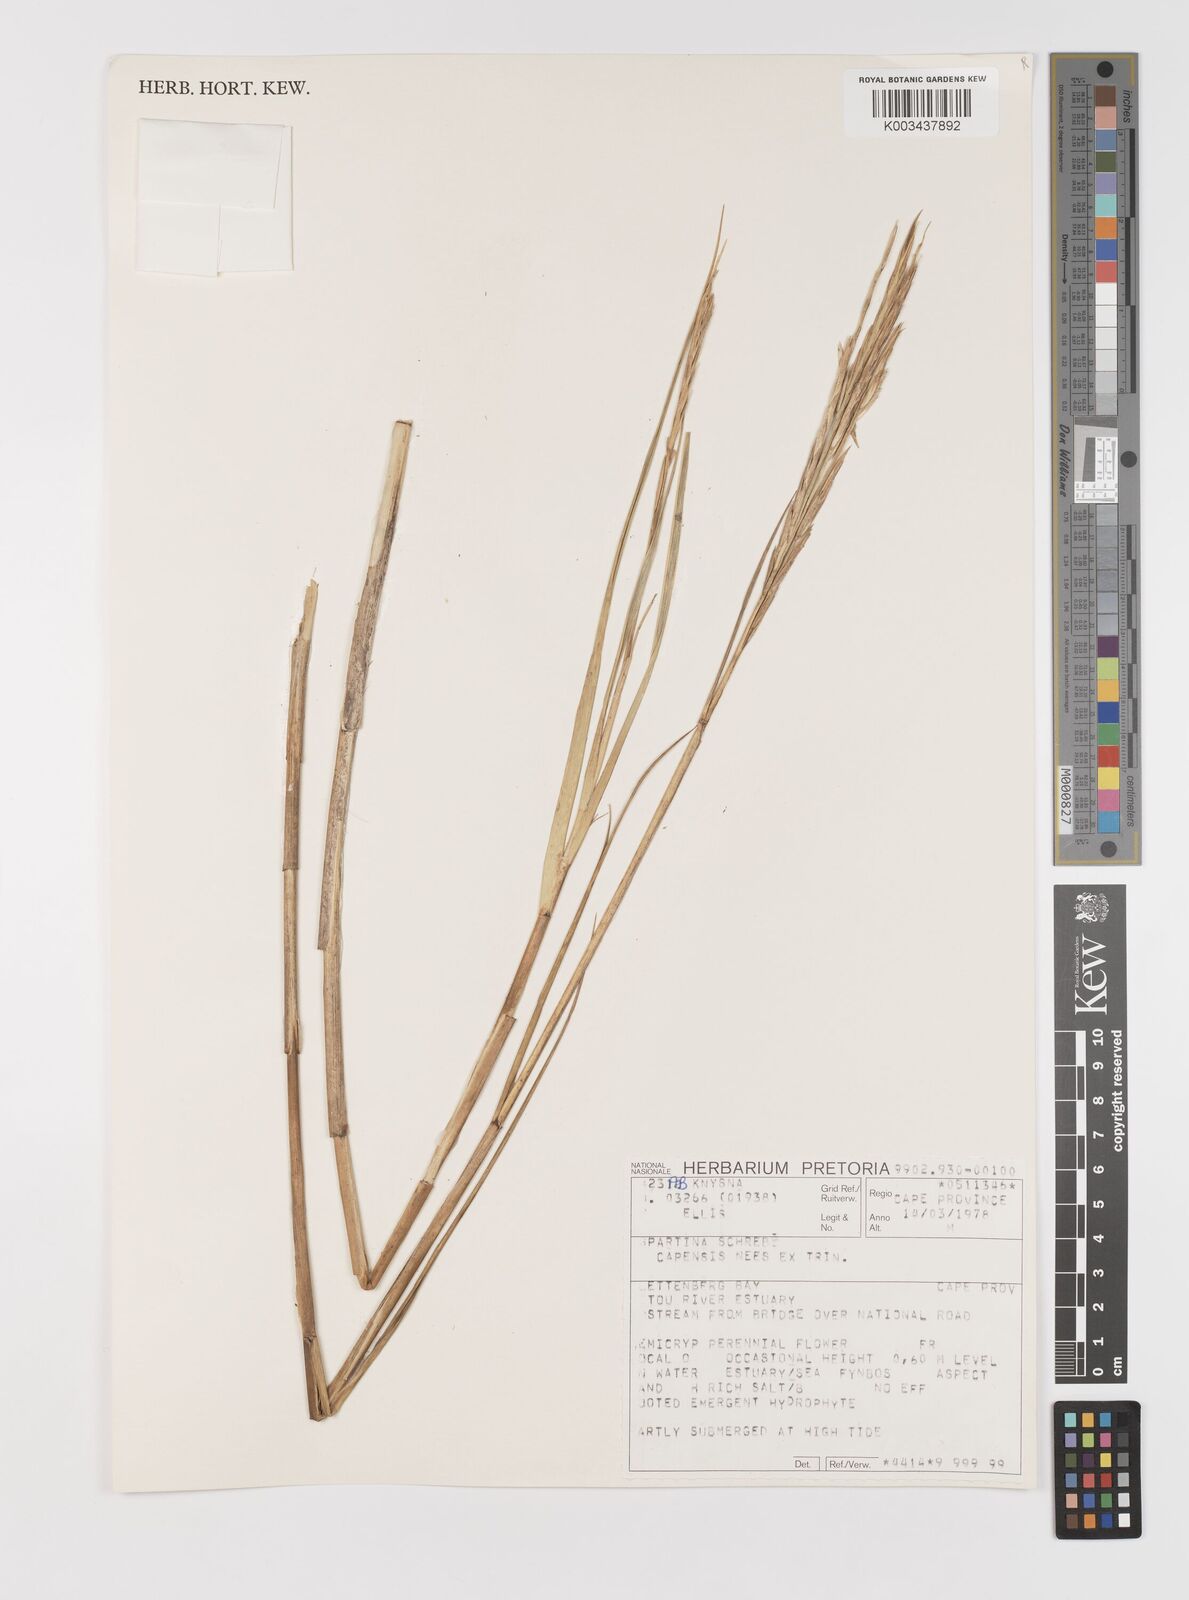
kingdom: Plantae
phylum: Tracheophyta
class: Liliopsida
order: Poales
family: Poaceae
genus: Sporobolus
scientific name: Sporobolus maritimus
